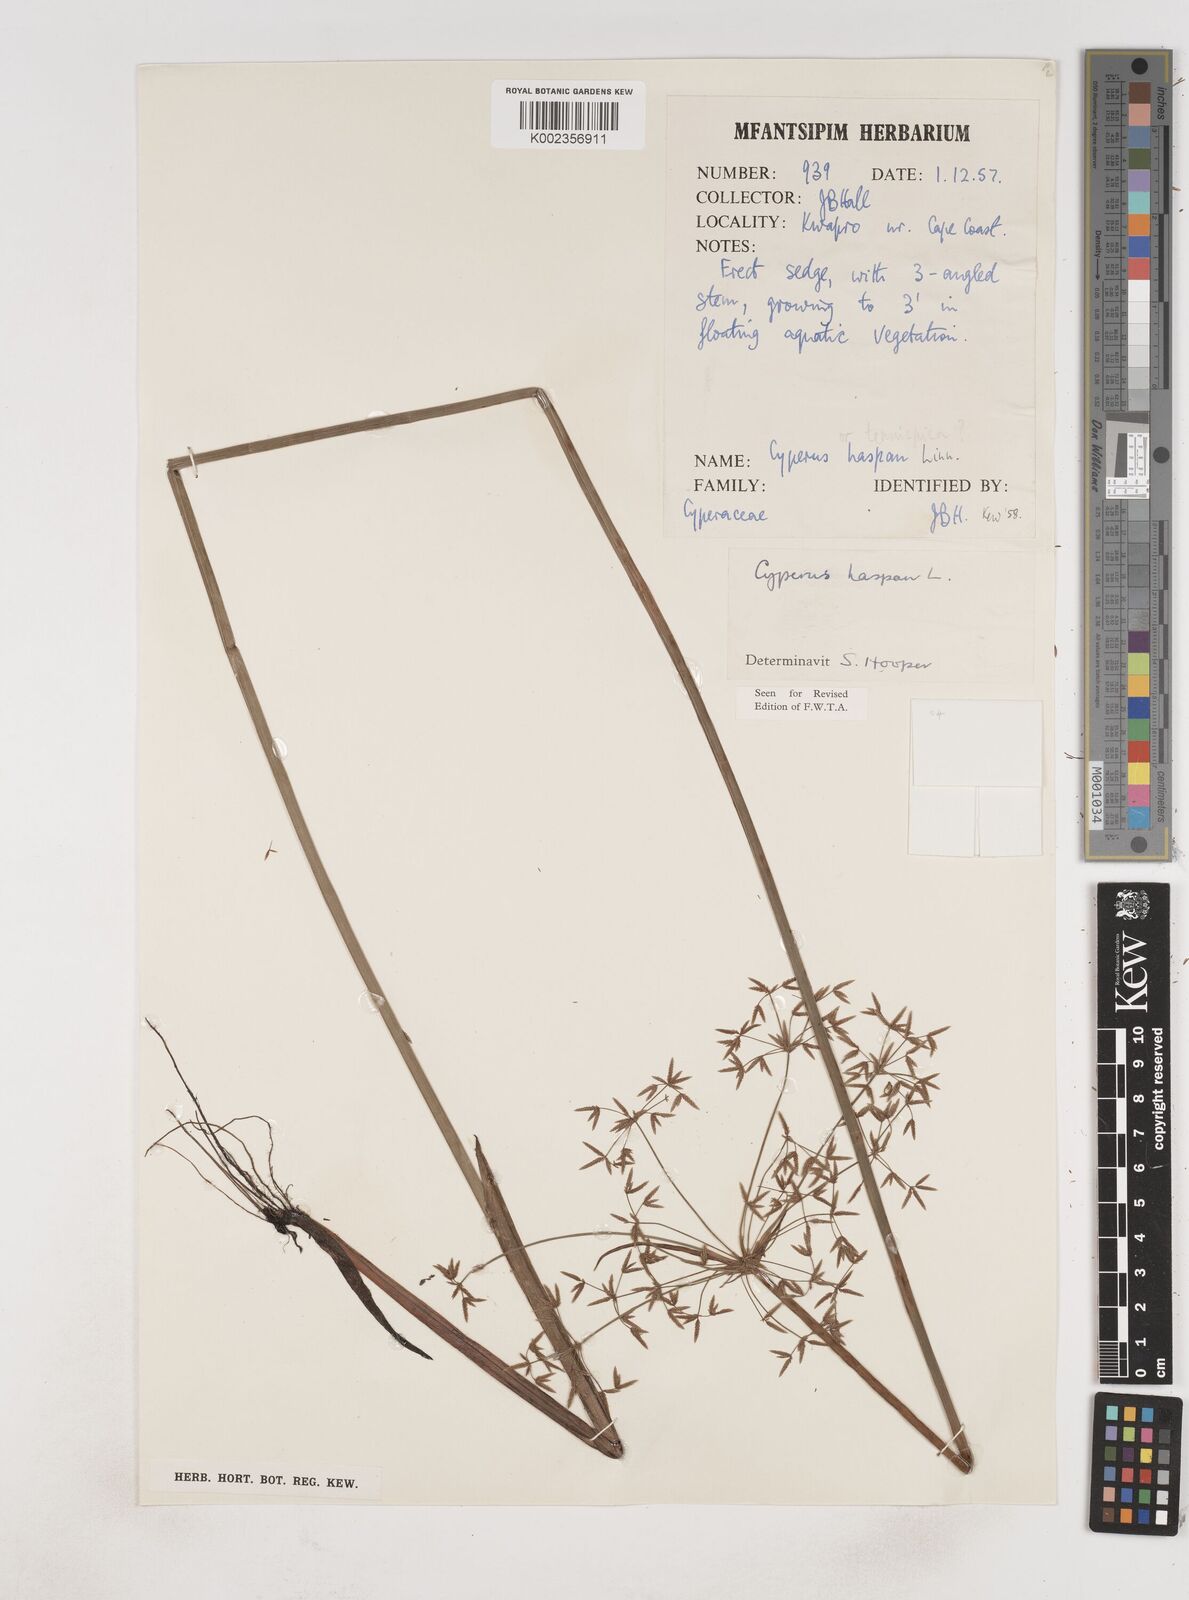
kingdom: Plantae
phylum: Tracheophyta
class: Liliopsida
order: Poales
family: Cyperaceae
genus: Cyperus
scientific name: Cyperus haspan
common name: Haspan flatsedge
